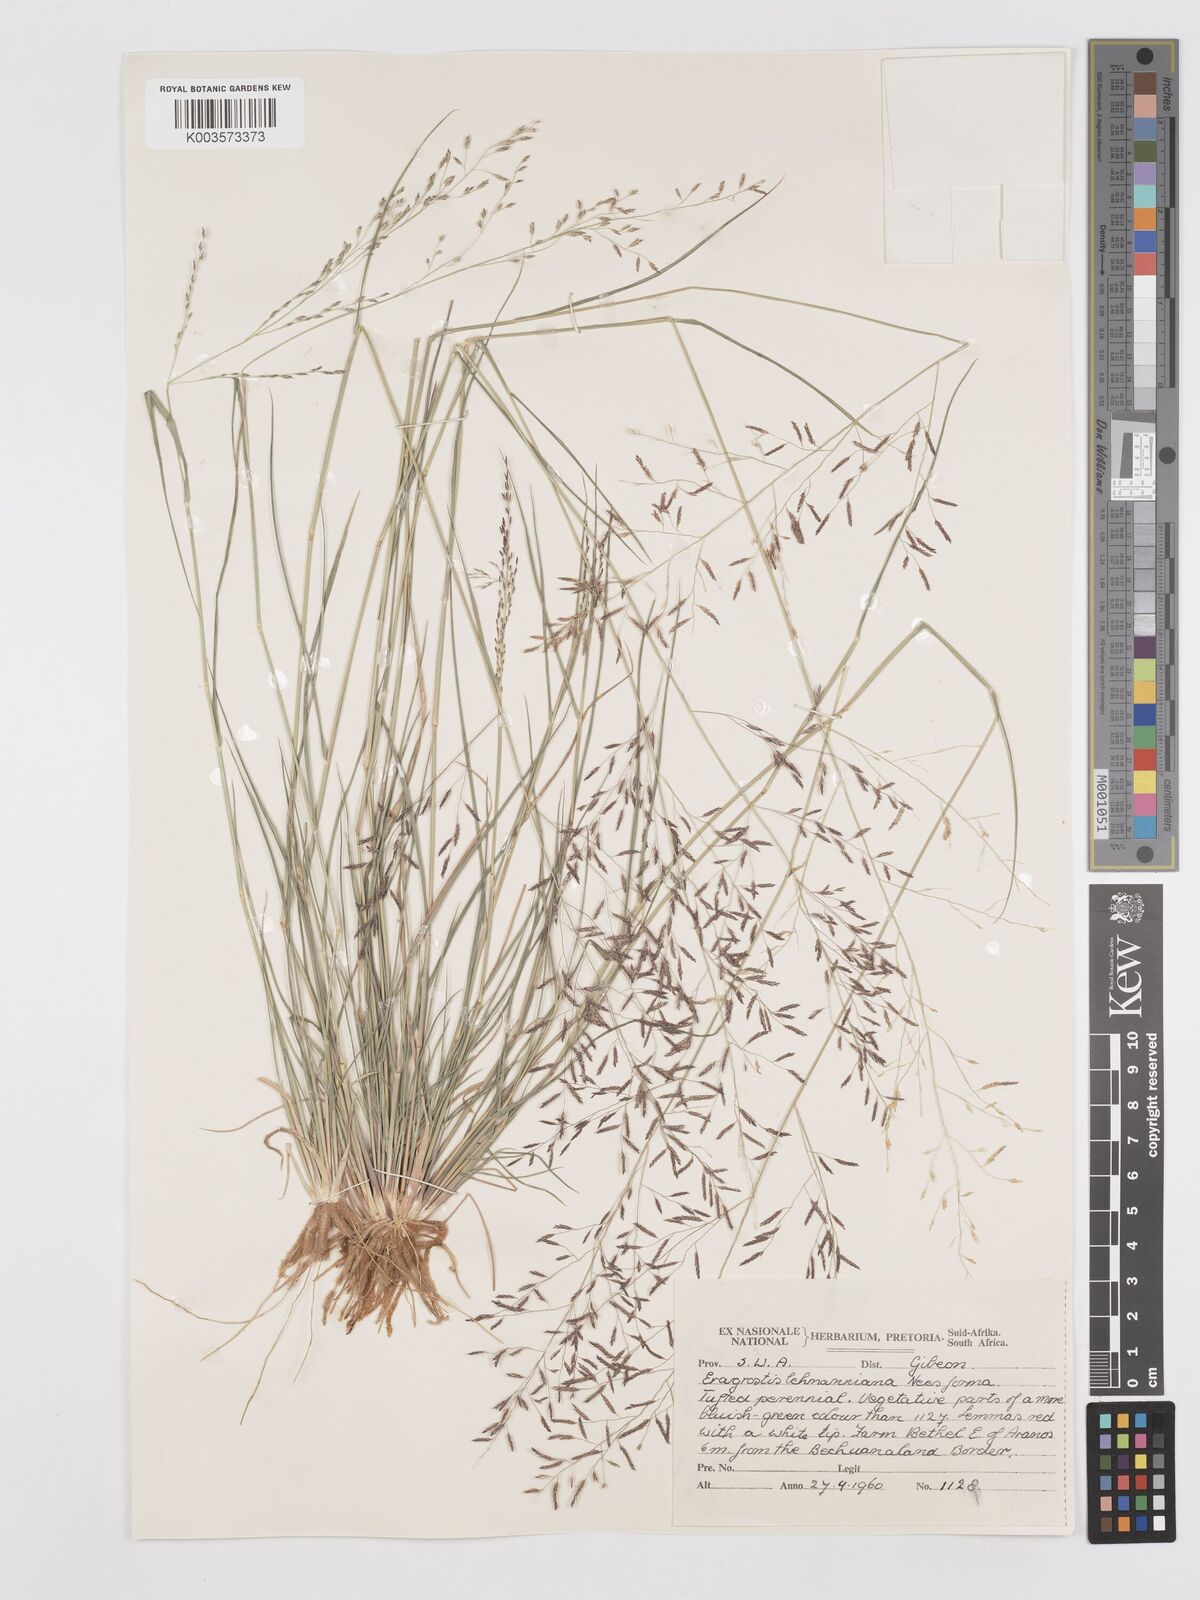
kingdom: Plantae
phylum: Tracheophyta
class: Liliopsida
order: Poales
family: Poaceae
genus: Eragrostis
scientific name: Eragrostis lehmanniana
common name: Lehmann lovegrass
